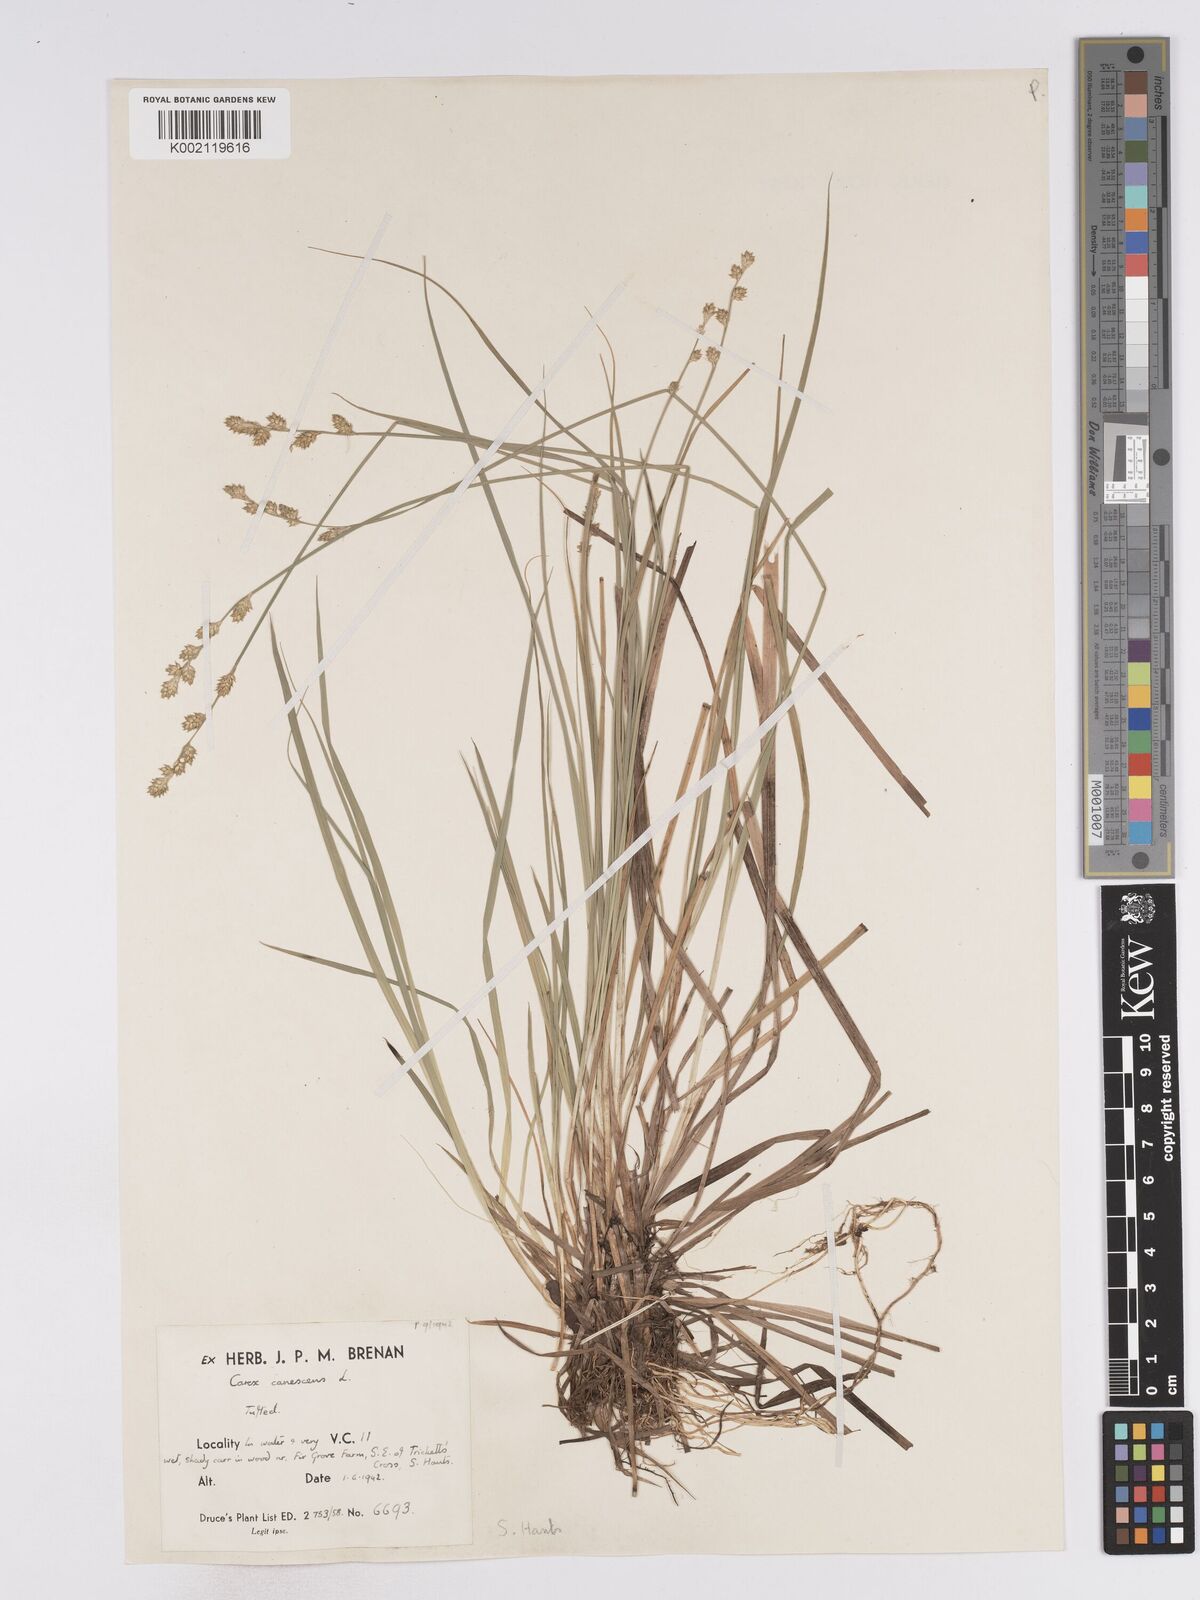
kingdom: Plantae
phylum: Tracheophyta
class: Liliopsida
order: Poales
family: Cyperaceae
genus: Carex
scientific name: Carex curta
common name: White sedge
